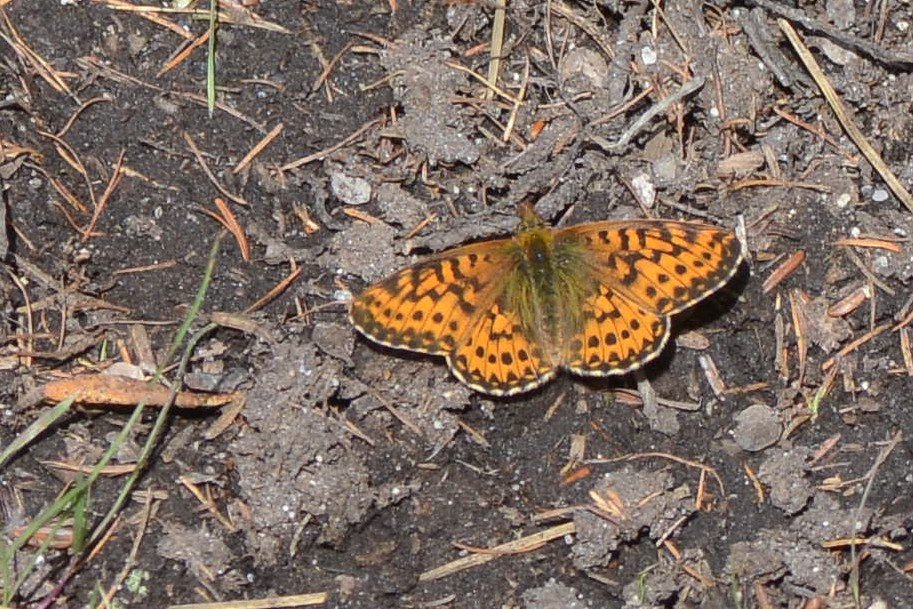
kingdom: Animalia
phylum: Arthropoda
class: Insecta
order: Lepidoptera
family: Nymphalidae
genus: Boloria
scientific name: Boloria freija
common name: Freija Fritillary
